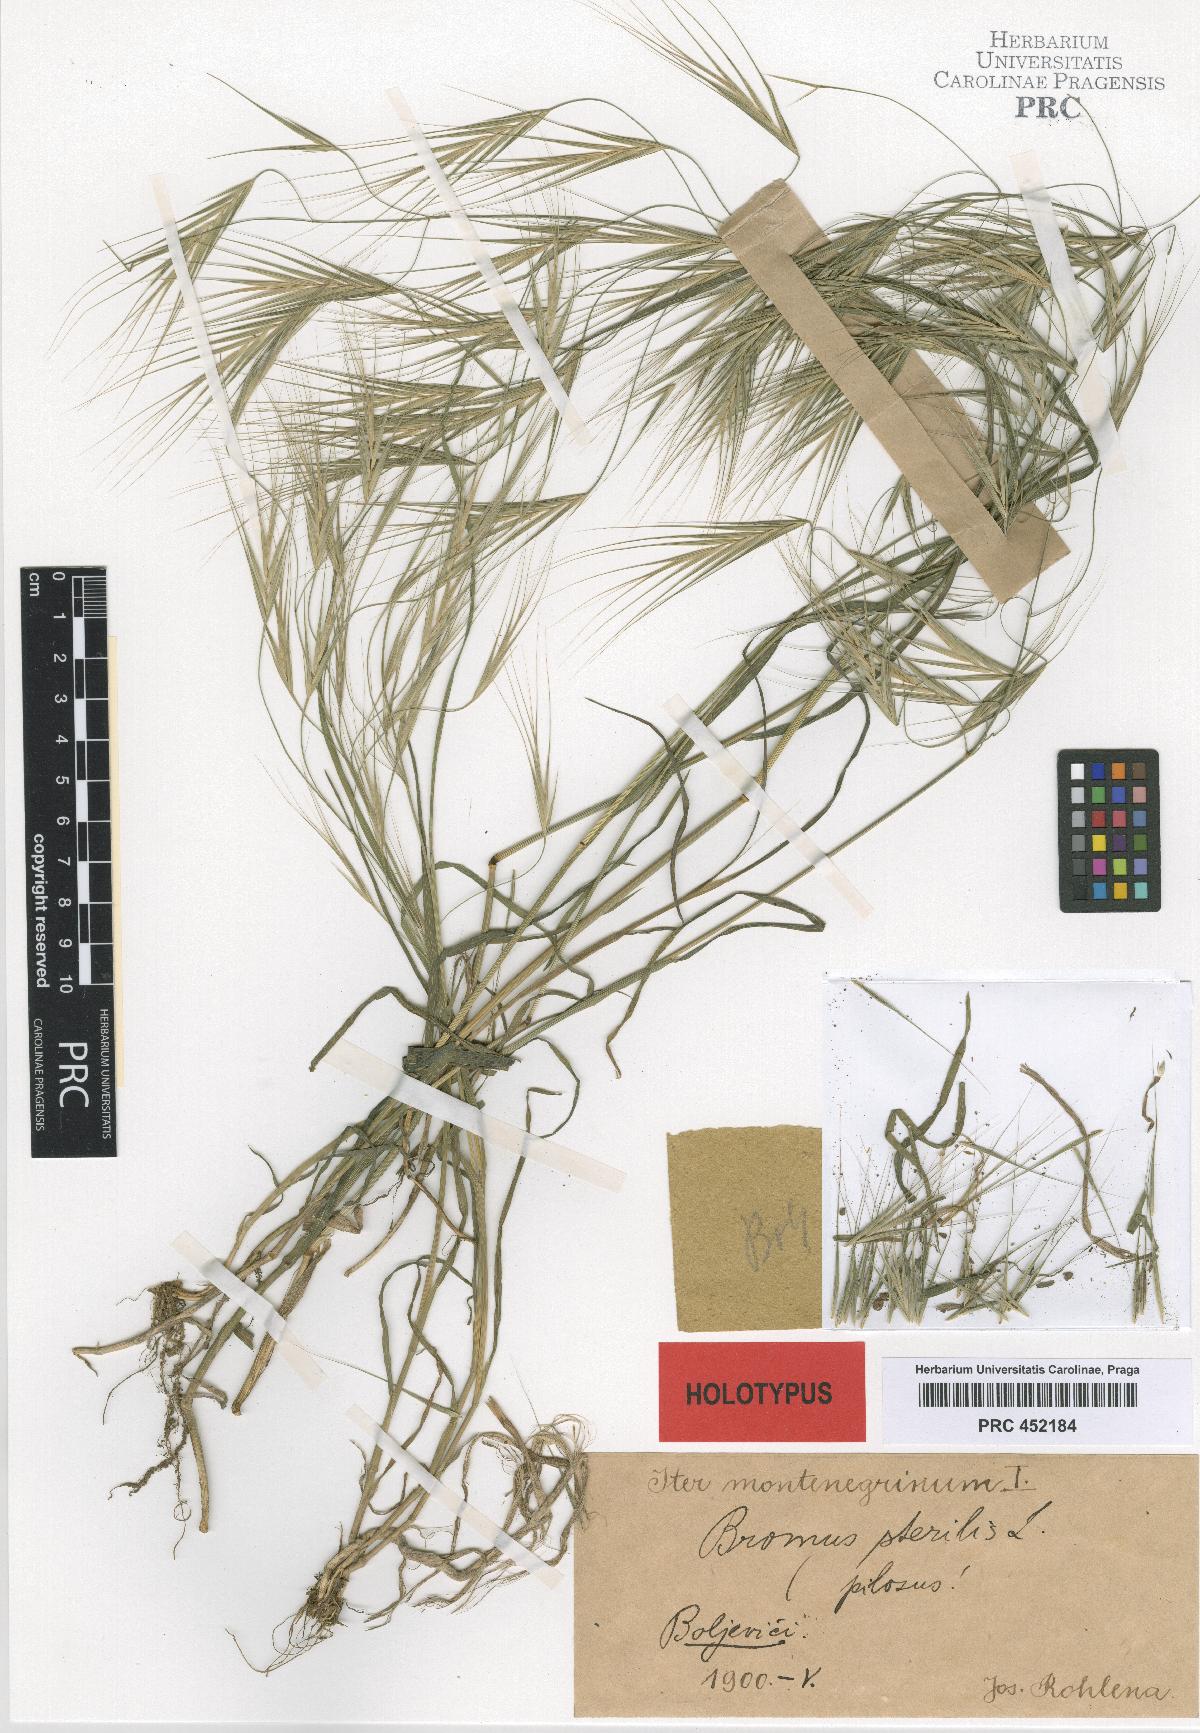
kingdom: Plantae
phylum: Tracheophyta
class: Liliopsida
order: Poales
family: Poaceae
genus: Bromus
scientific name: Bromus sterilis
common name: Poverty brome
